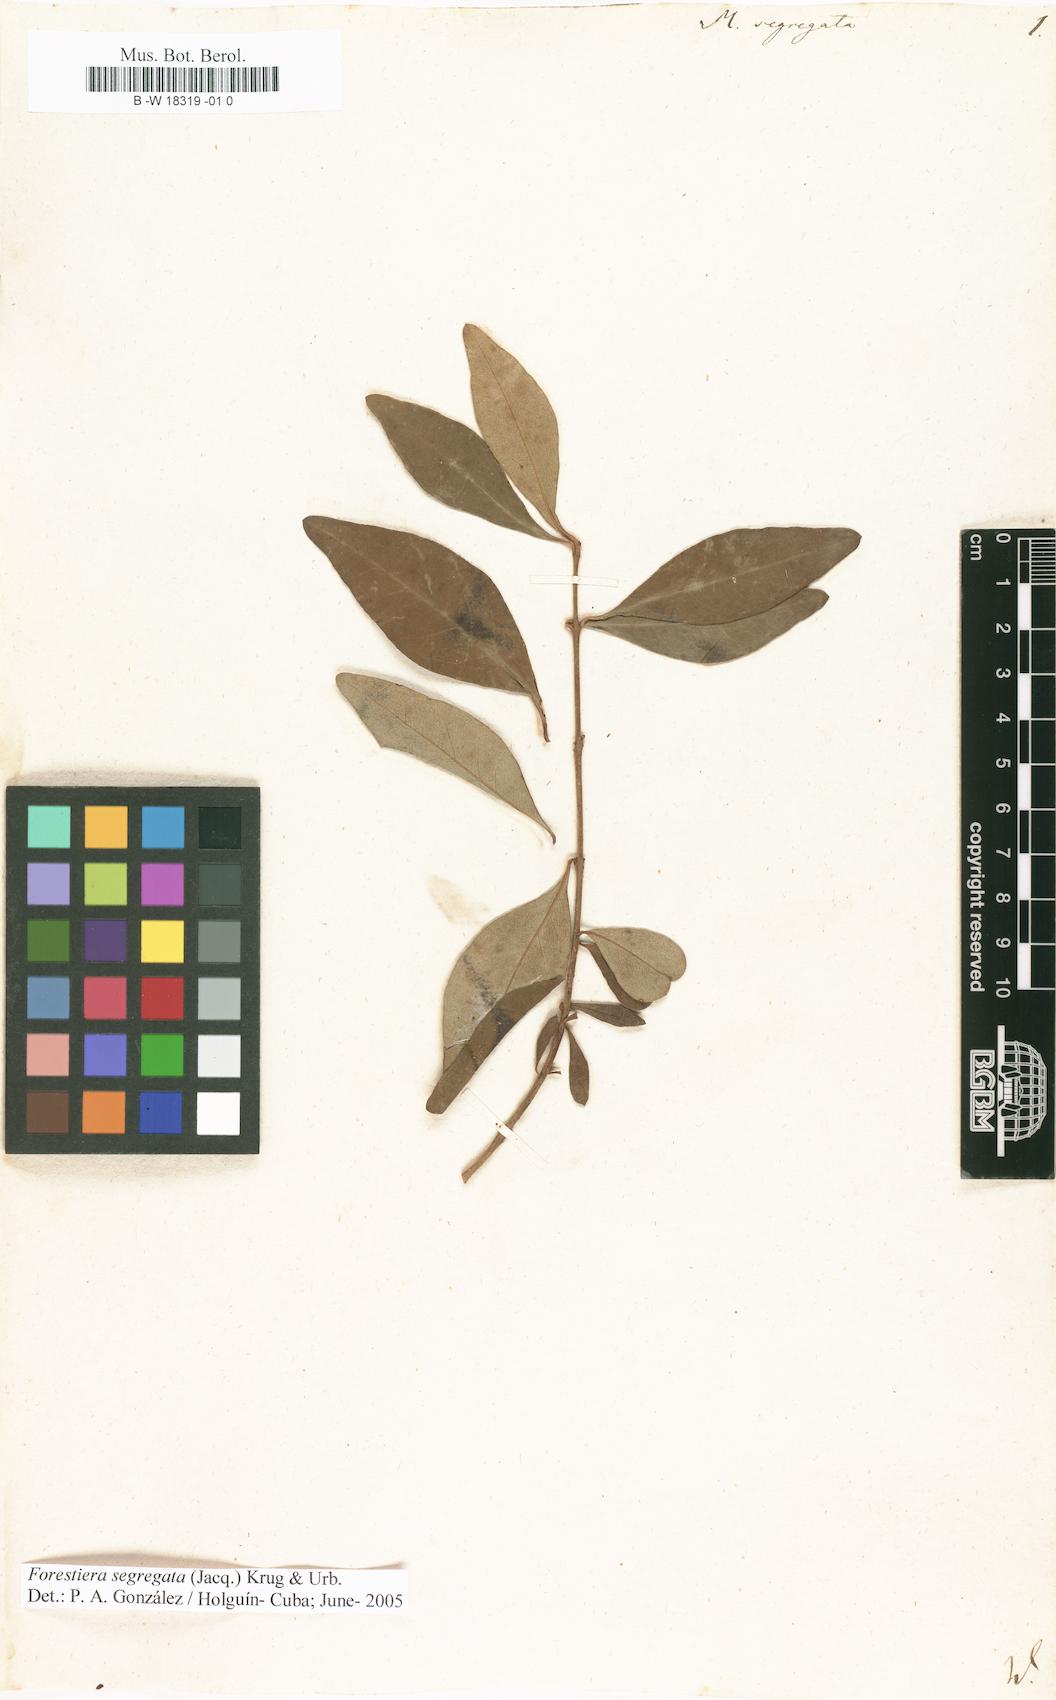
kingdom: Plantae
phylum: Tracheophyta
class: Magnoliopsida
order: Lamiales
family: Oleaceae
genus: Forestiera
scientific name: Forestiera segregata
